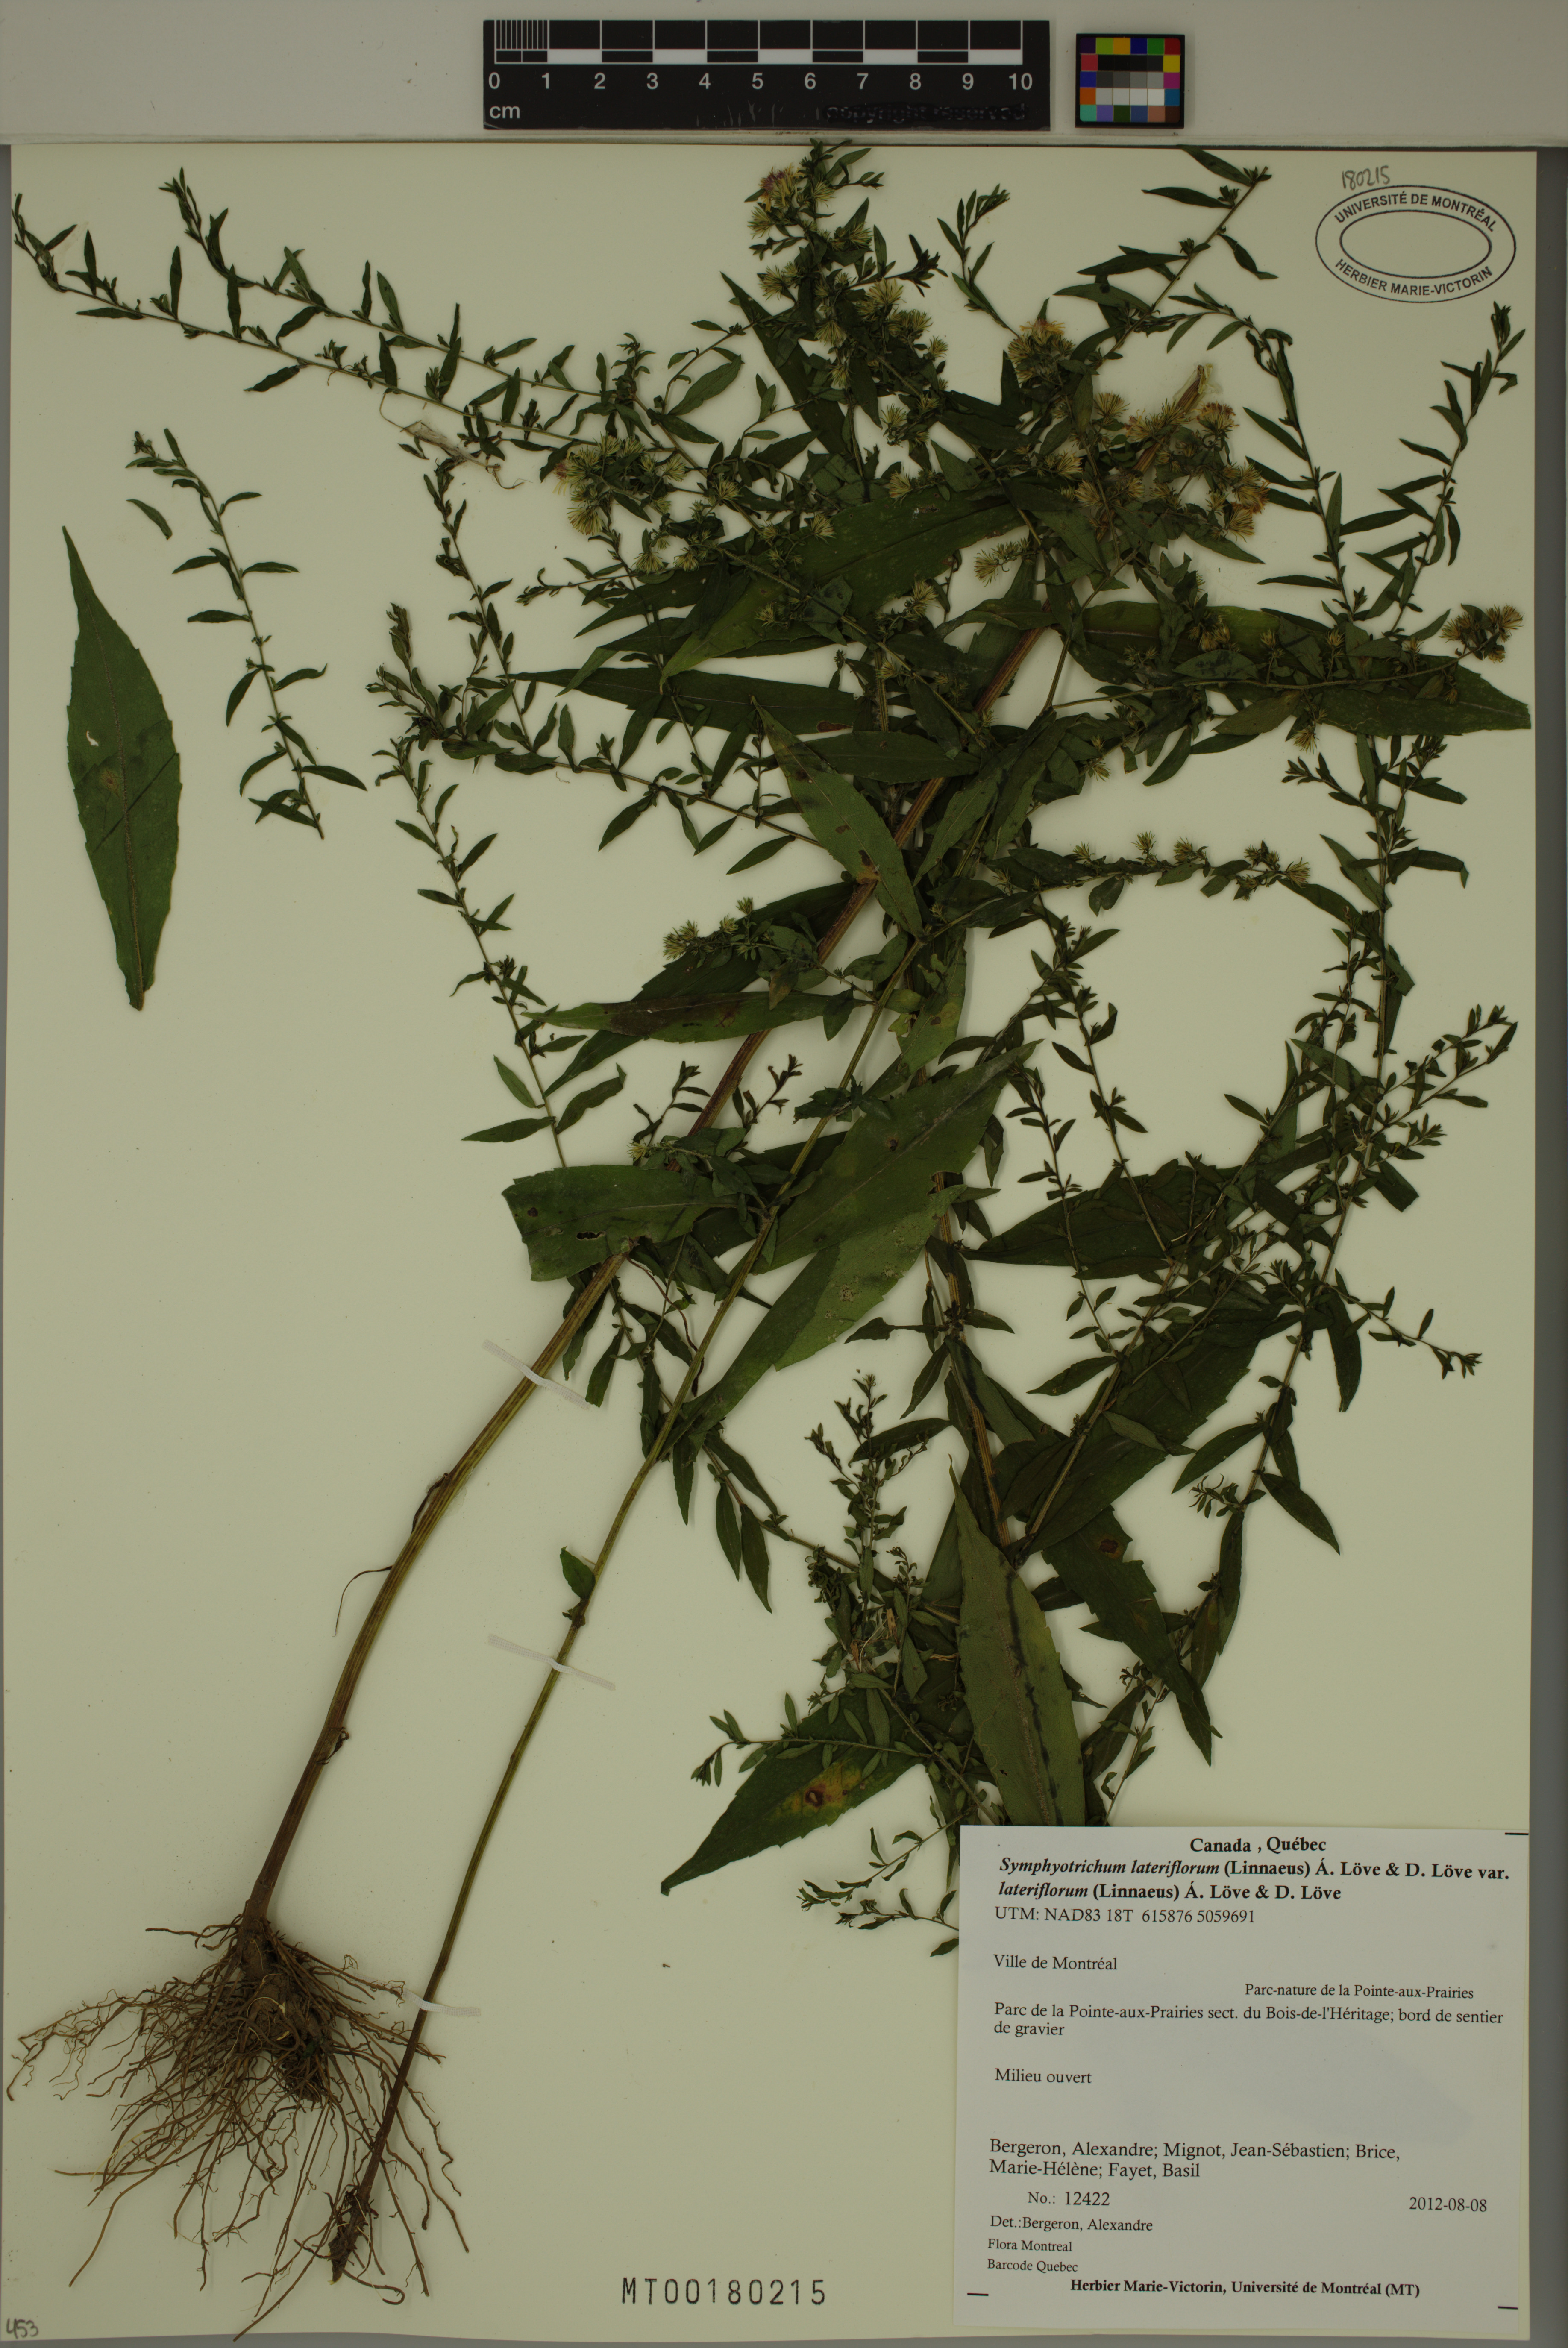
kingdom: Plantae
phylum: Tracheophyta
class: Magnoliopsida
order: Asterales
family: Asteraceae
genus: Symphyotrichum
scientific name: Symphyotrichum lateriflorum
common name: Calico aster
